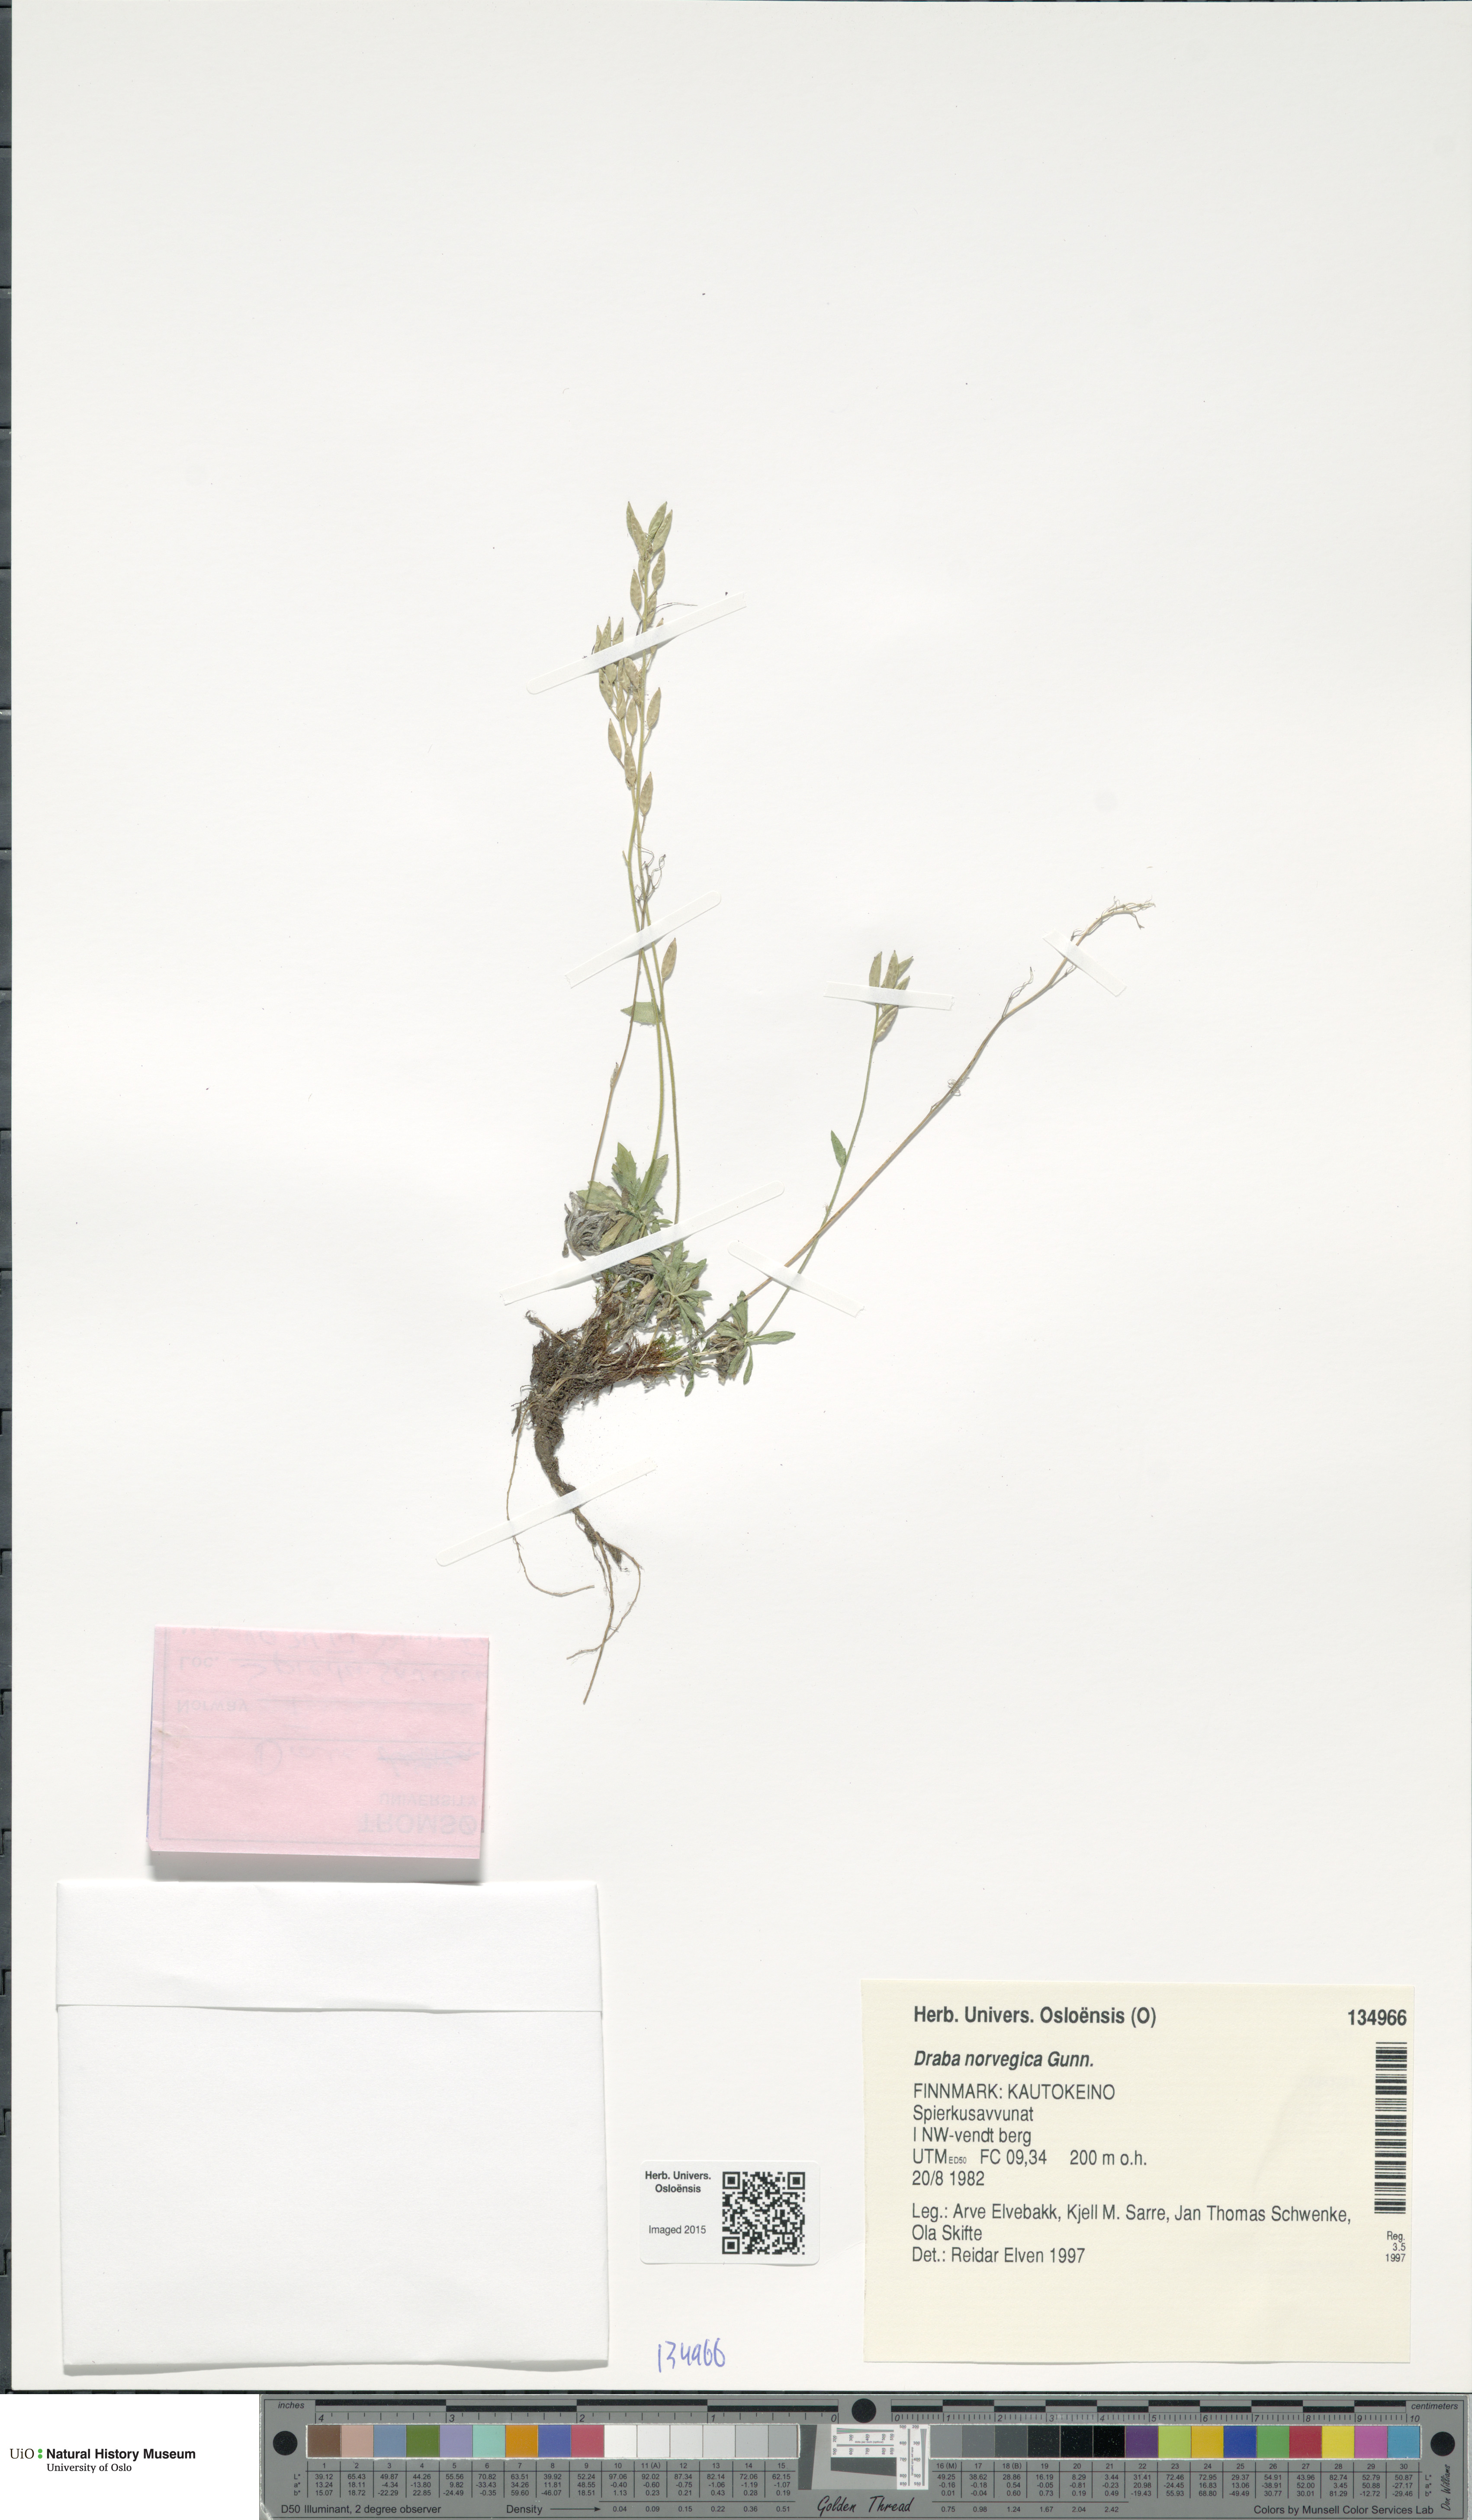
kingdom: Plantae
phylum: Tracheophyta
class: Magnoliopsida
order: Brassicales
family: Brassicaceae
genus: Draba
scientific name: Draba norvegica
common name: Rock whitlowgrass
